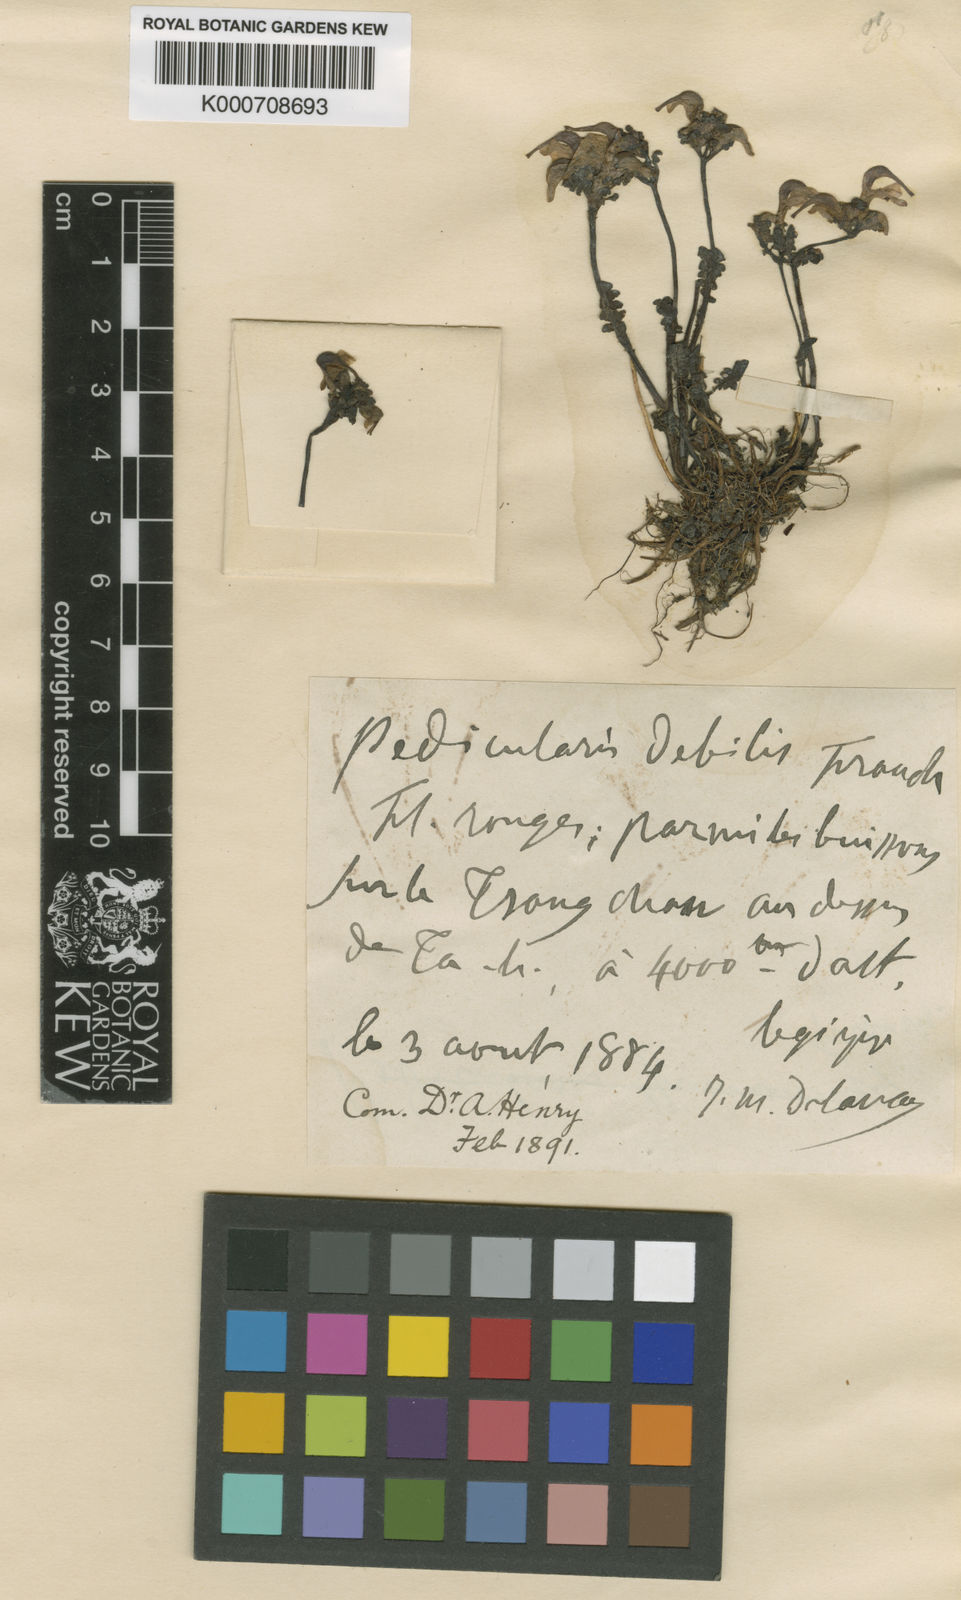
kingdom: Plantae
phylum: Tracheophyta
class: Magnoliopsida
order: Lamiales
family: Orobanchaceae
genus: Pedicularis
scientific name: Pedicularis debilis
